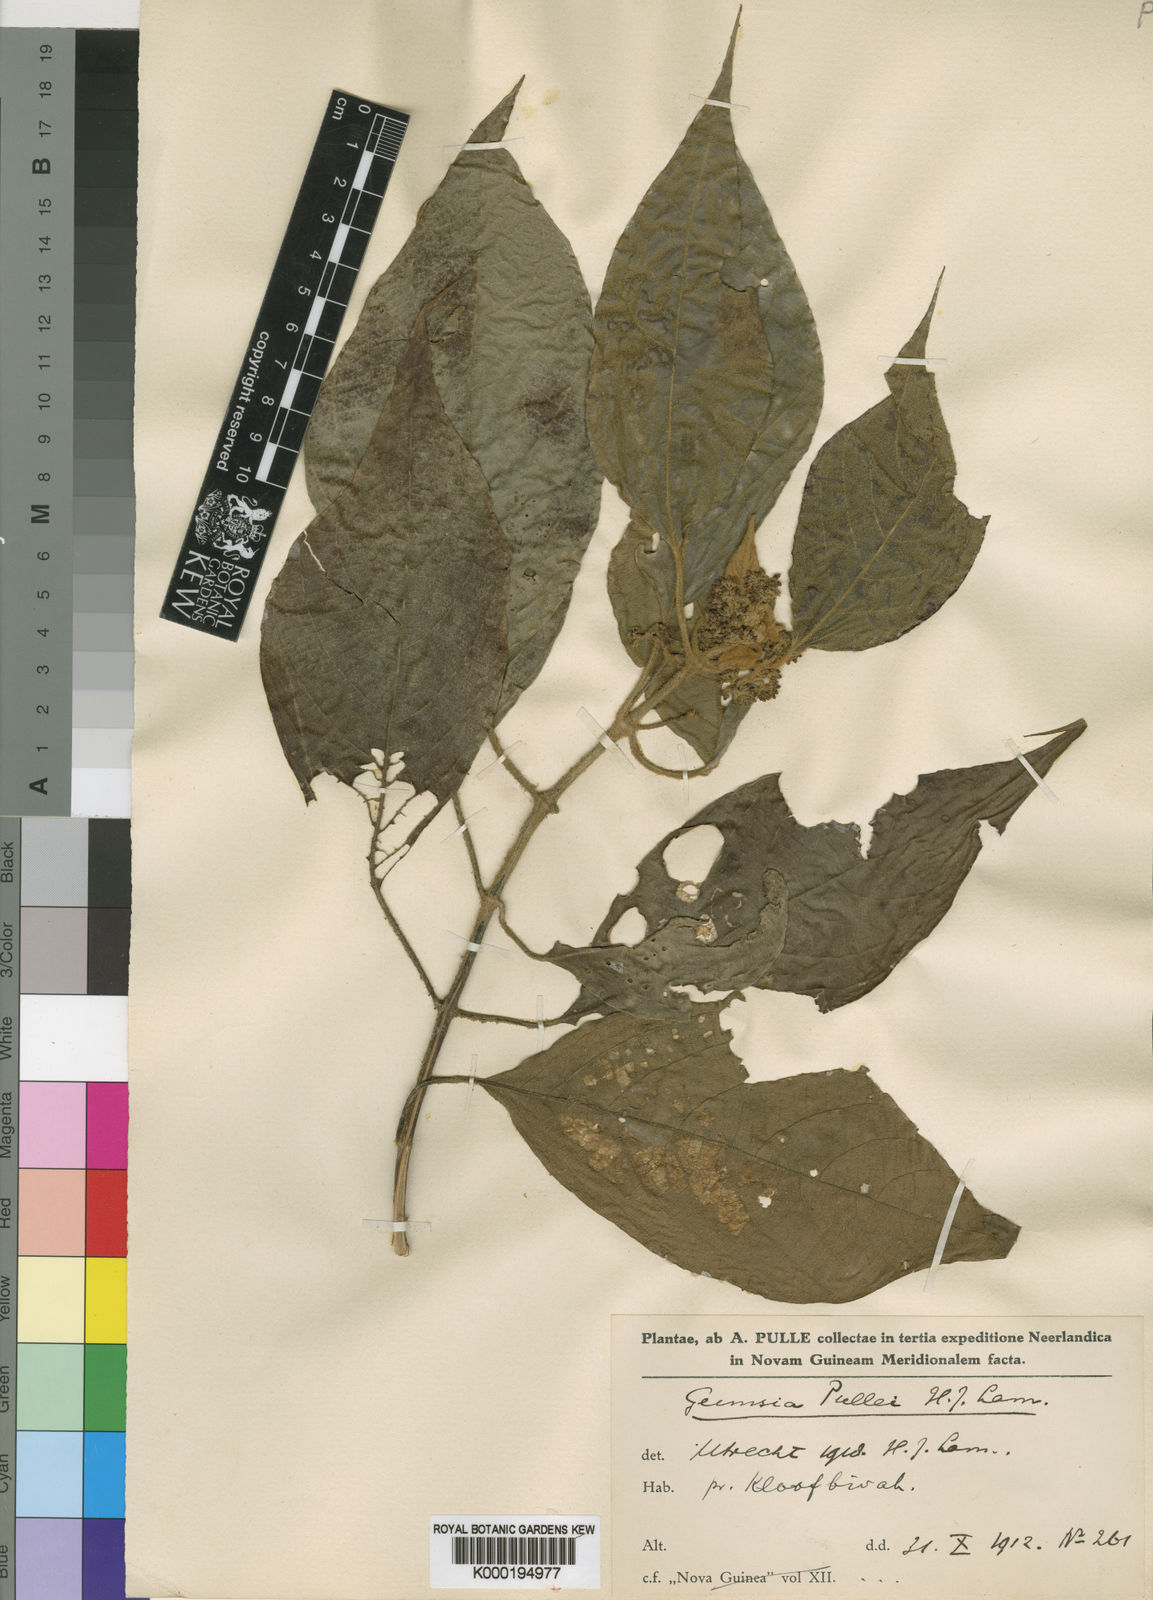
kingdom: Plantae
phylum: Tracheophyta
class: Magnoliopsida
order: Lamiales
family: Lamiaceae
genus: Callicarpa
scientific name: Callicarpa pentandra
